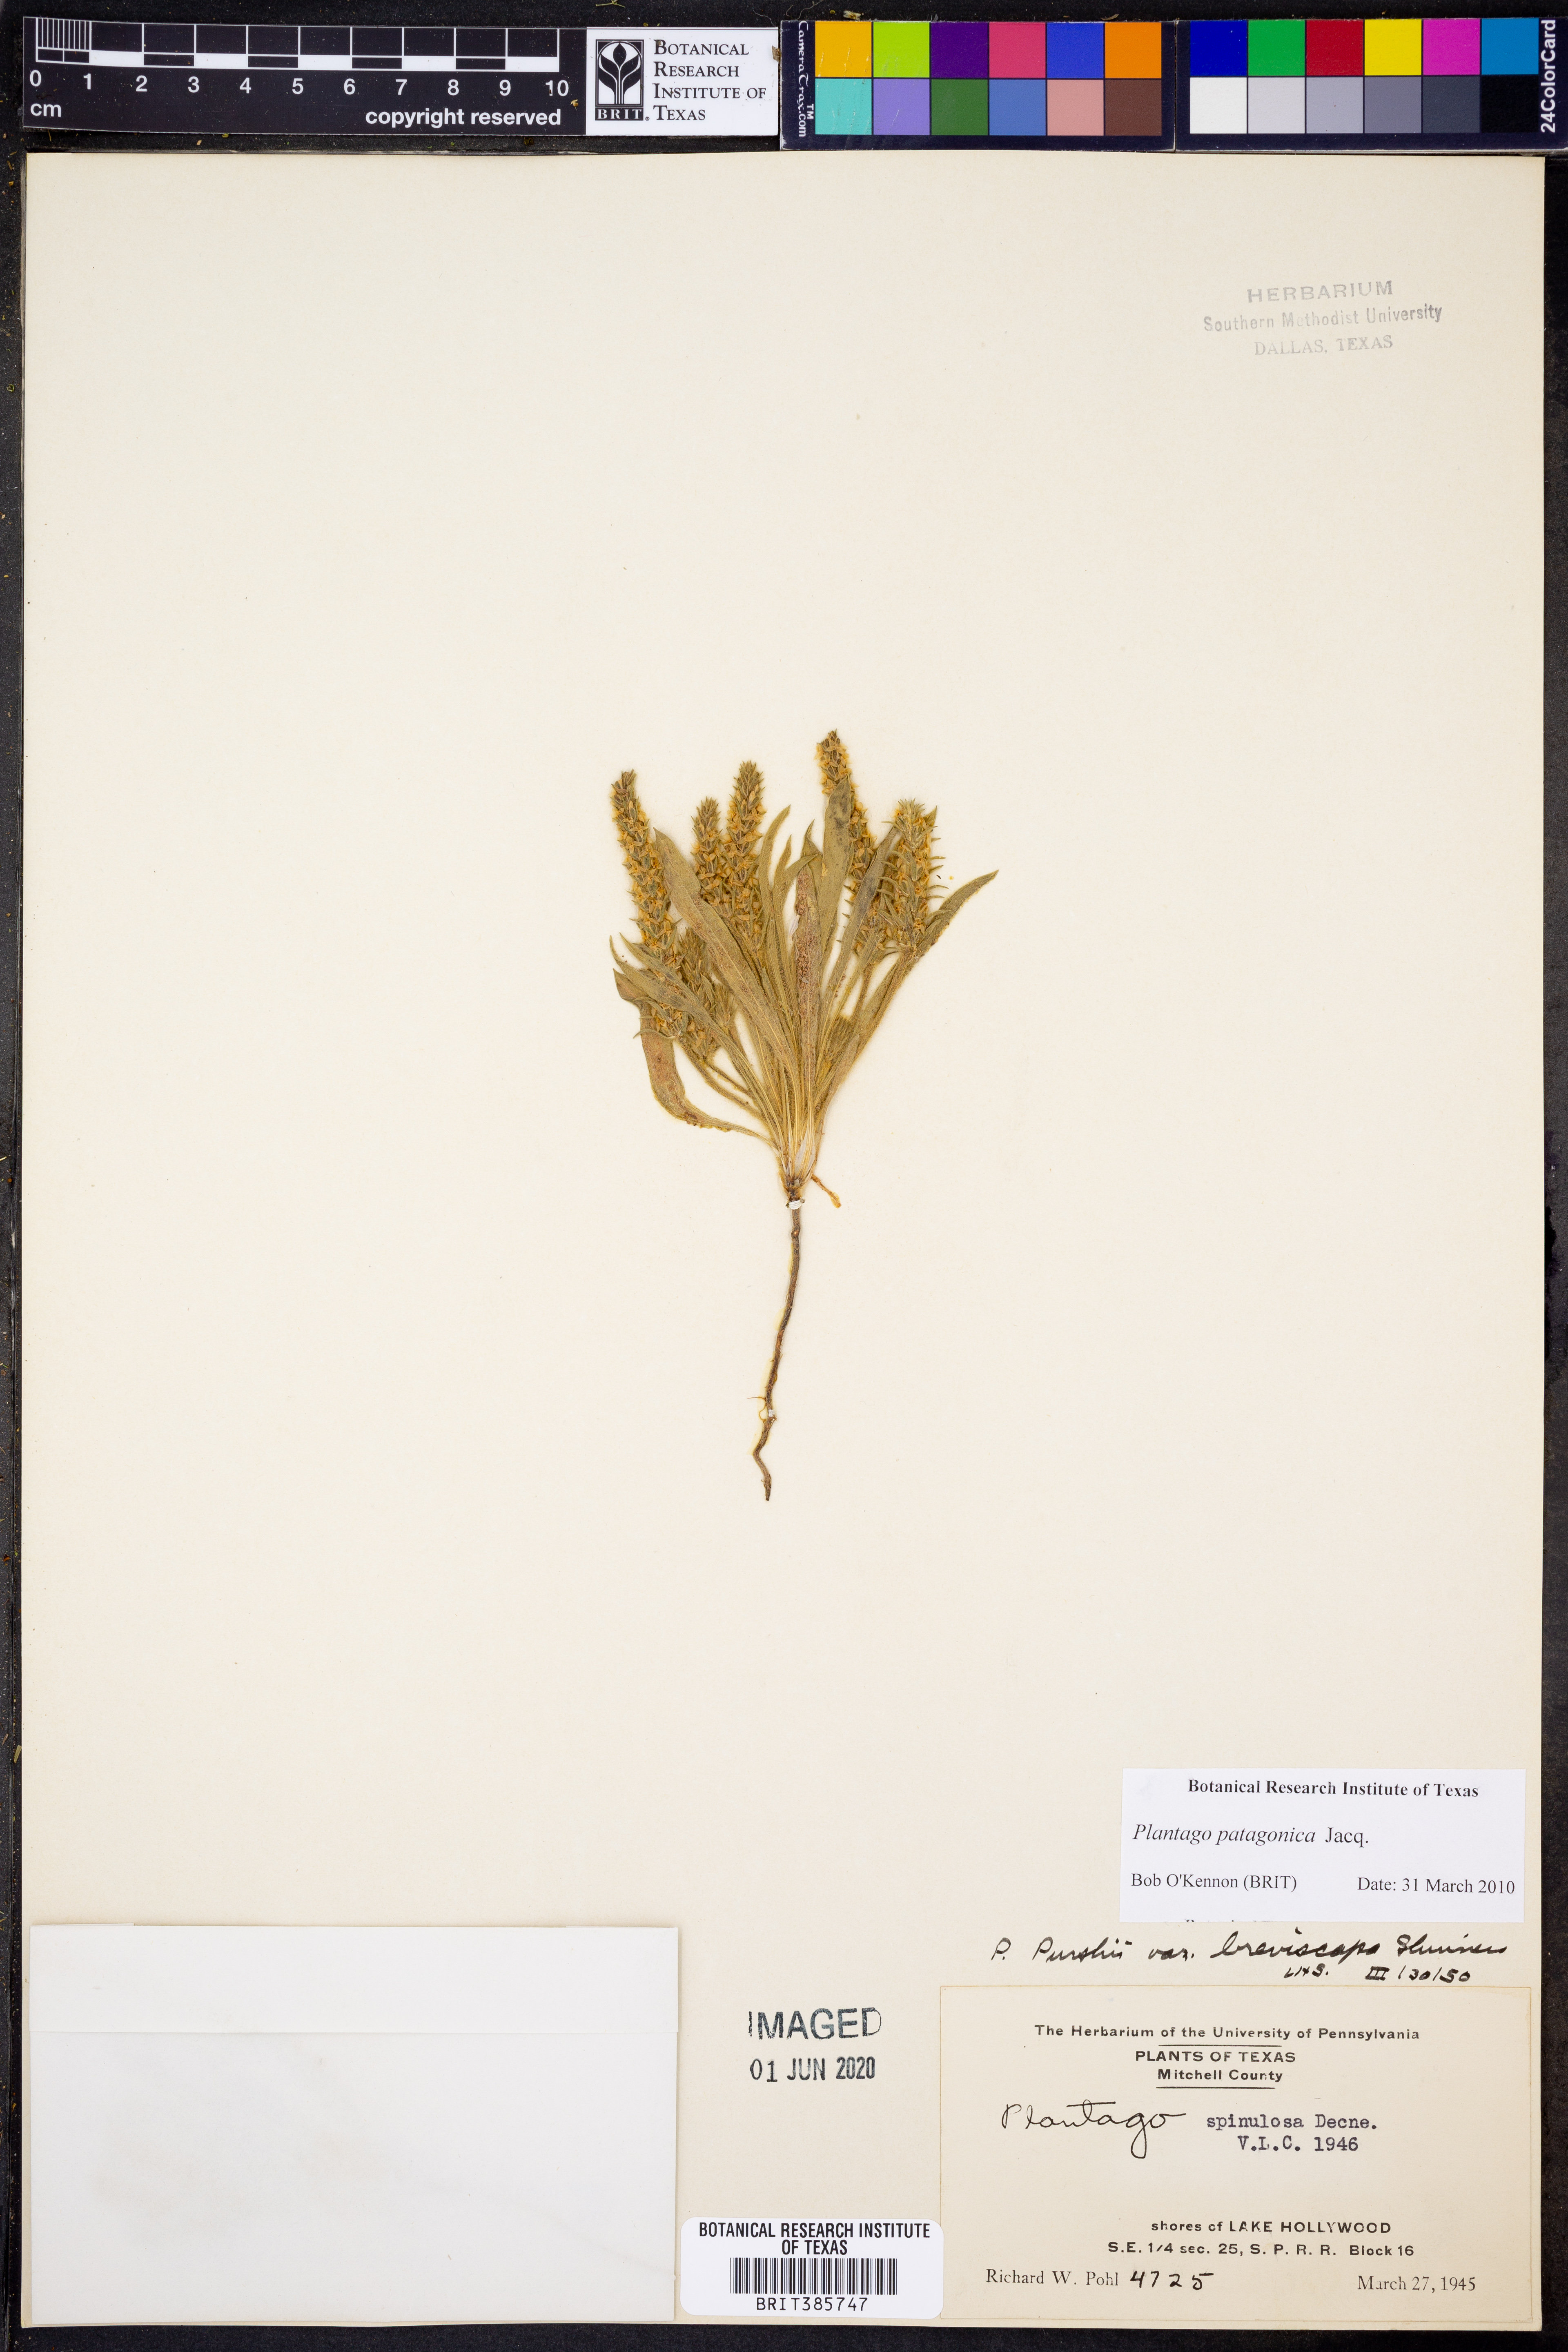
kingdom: Plantae
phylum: Tracheophyta
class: Magnoliopsida
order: Lamiales
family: Plantaginaceae
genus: Plantago
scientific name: Plantago patagonica
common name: Patagonia indian-wheat
